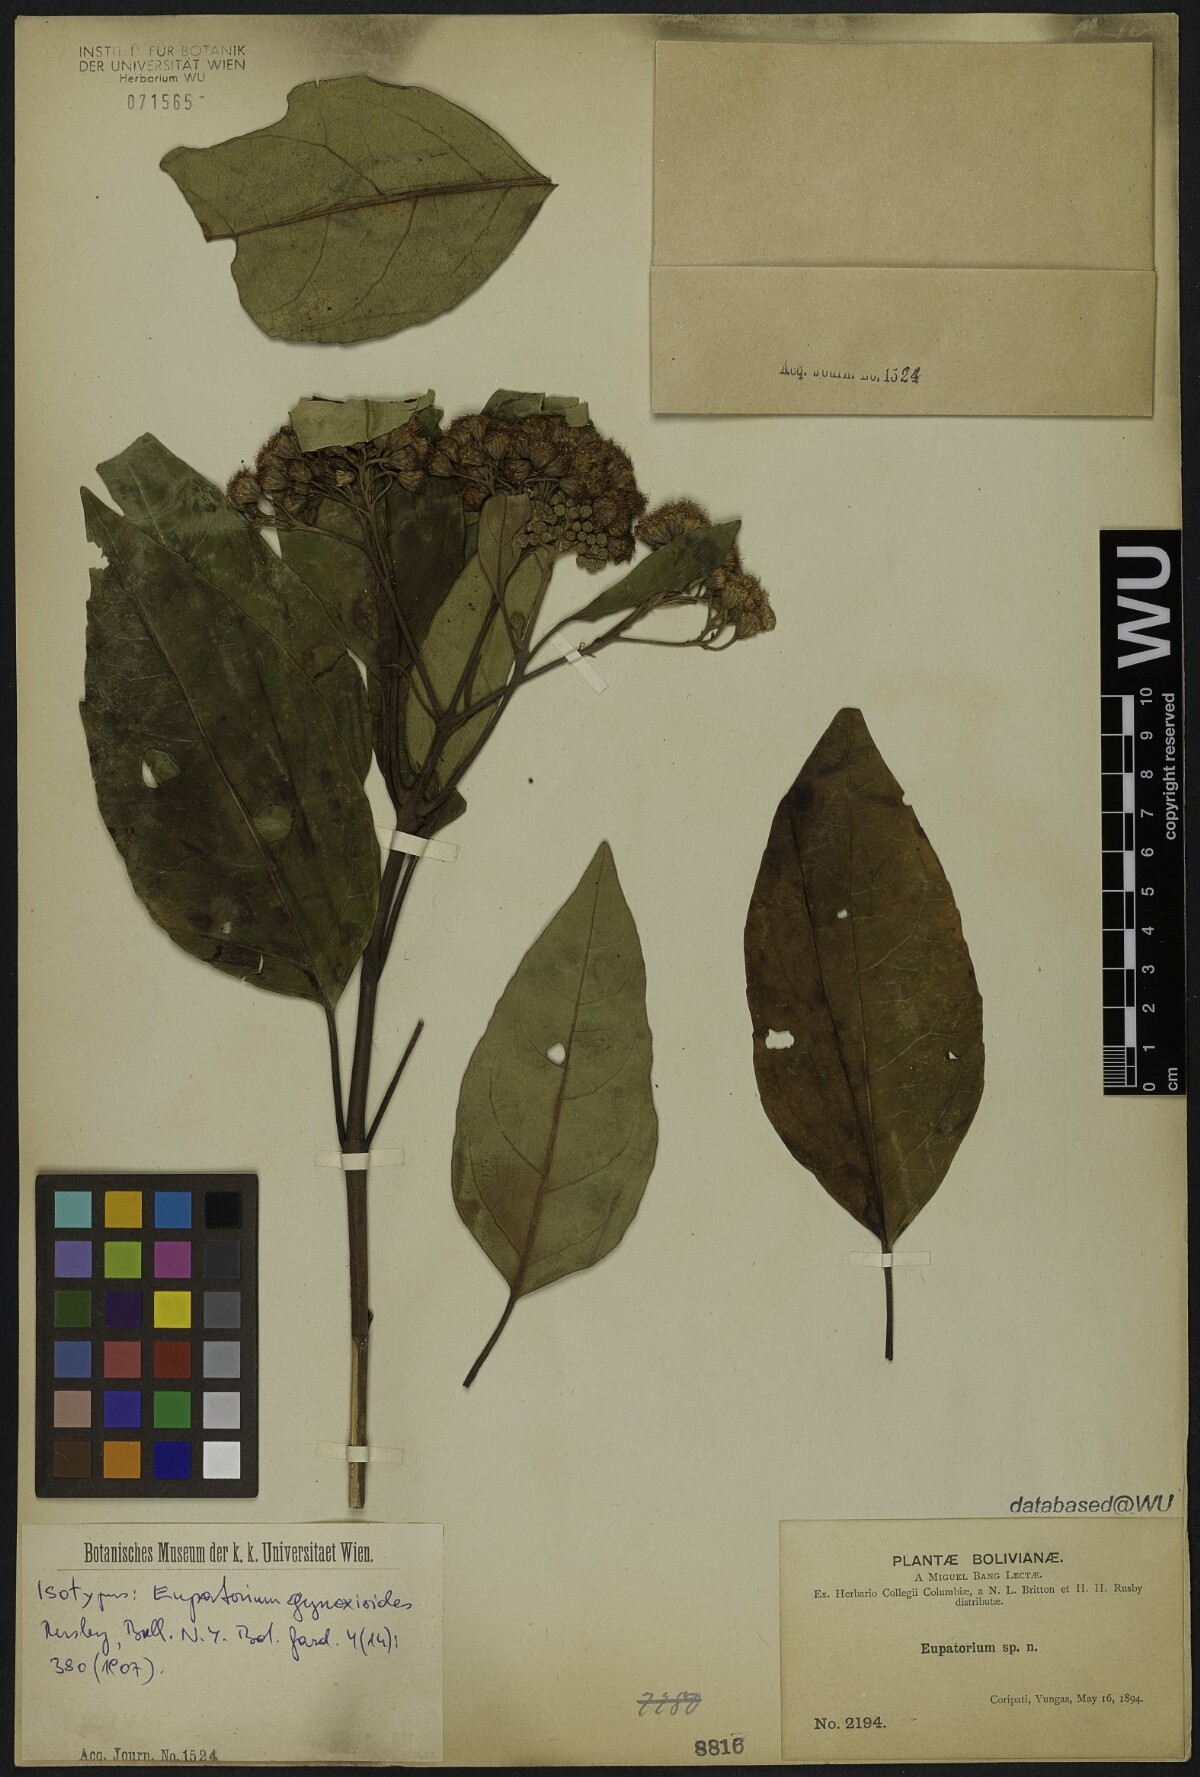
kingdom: Plantae
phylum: Tracheophyta
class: Magnoliopsida
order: Asterales
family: Asteraceae
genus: Kaunia
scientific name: Kaunia gynoximorpha
